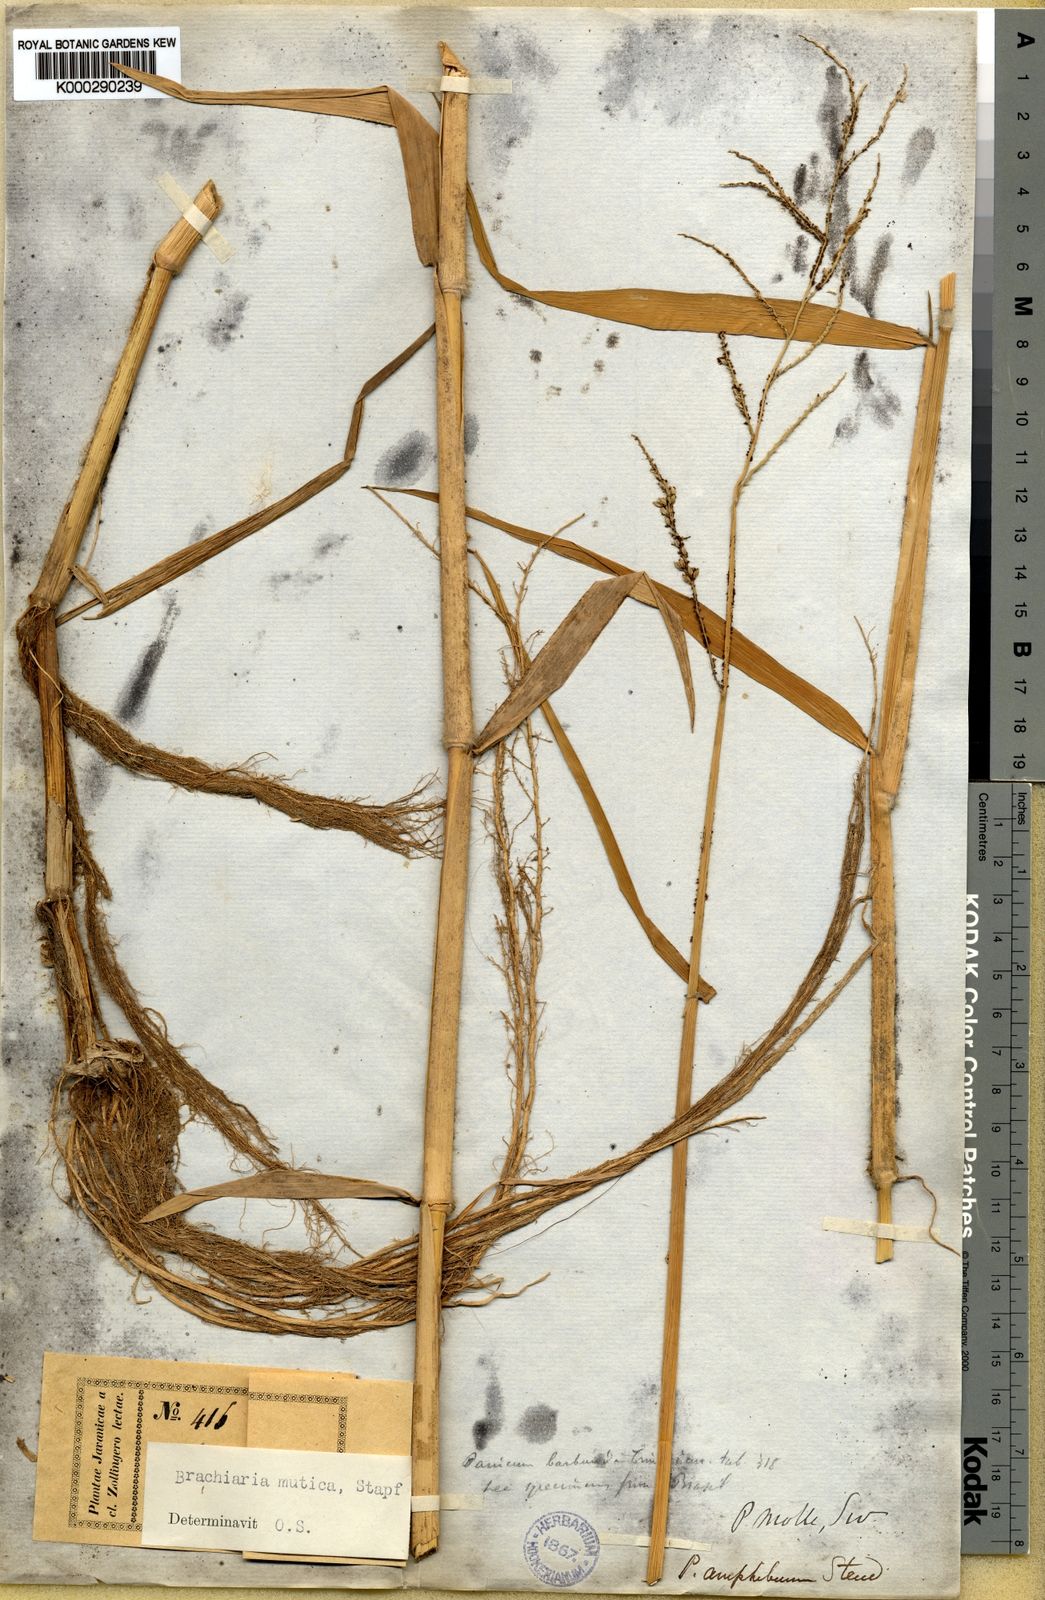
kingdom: Plantae
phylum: Tracheophyta
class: Liliopsida
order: Poales
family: Poaceae
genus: Urochloa
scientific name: Urochloa mutica
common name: Para grass
